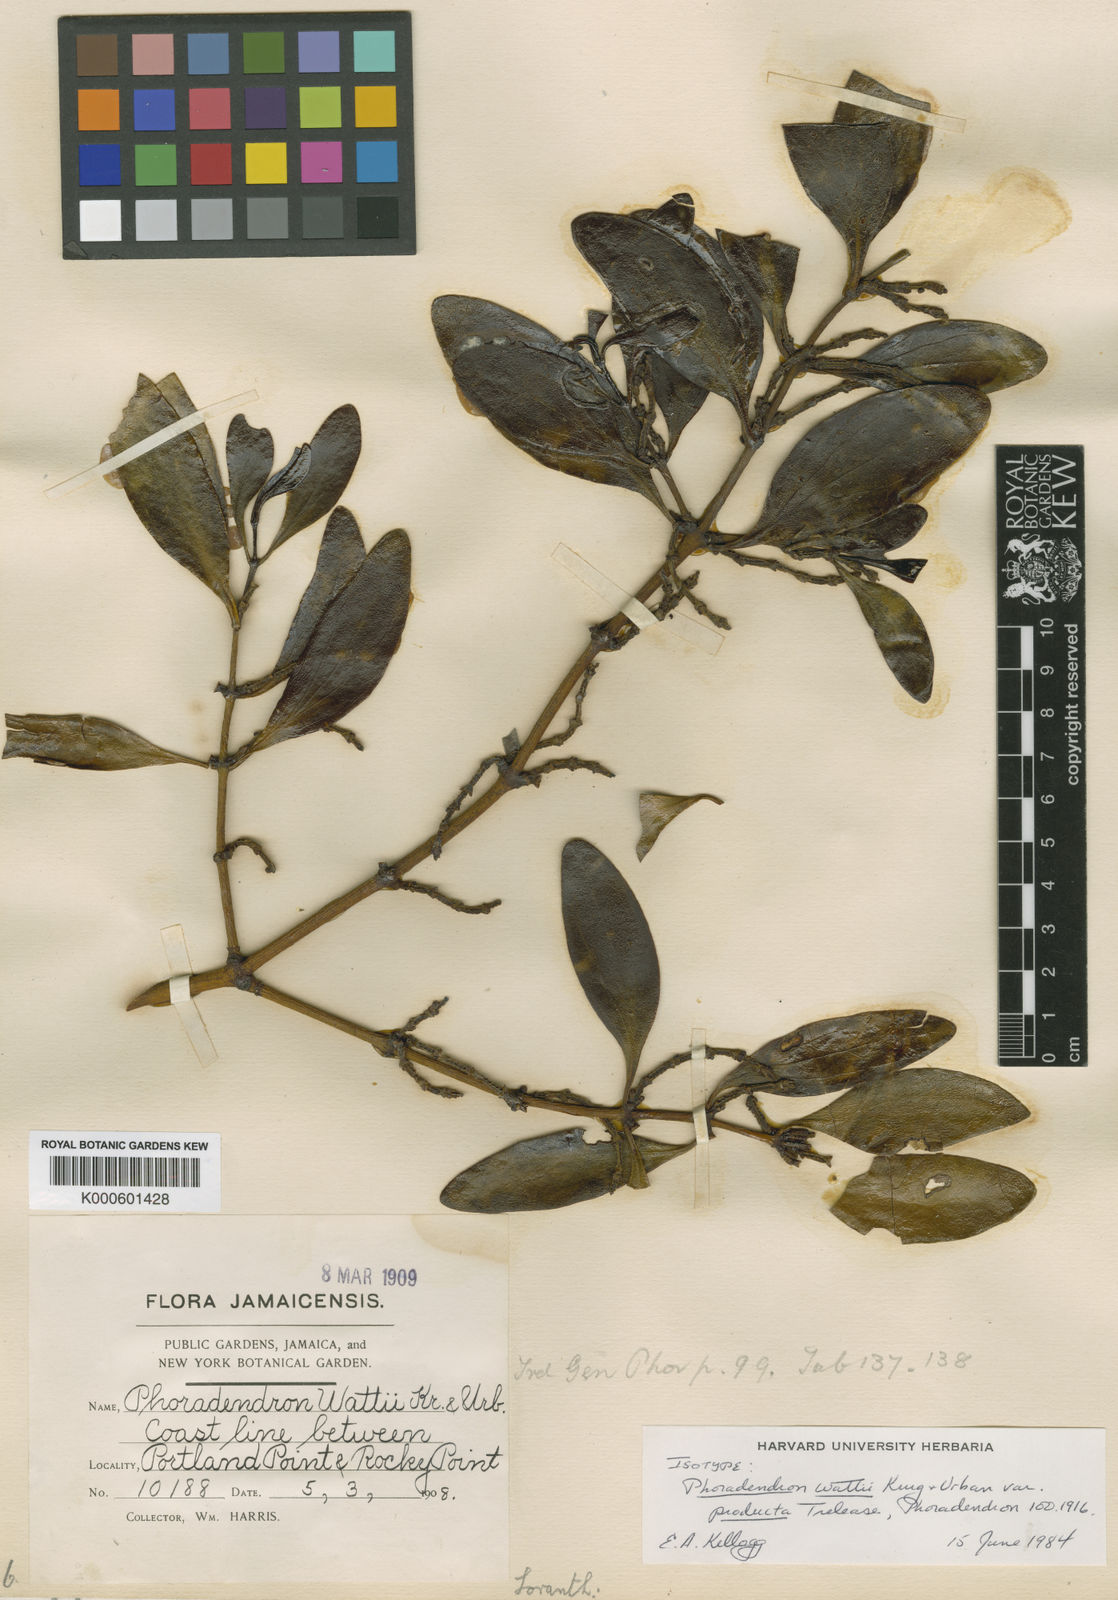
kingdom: Plantae
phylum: Tracheophyta
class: Magnoliopsida
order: Santalales
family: Viscaceae
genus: Phoradendron
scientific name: Phoradendron wattii
